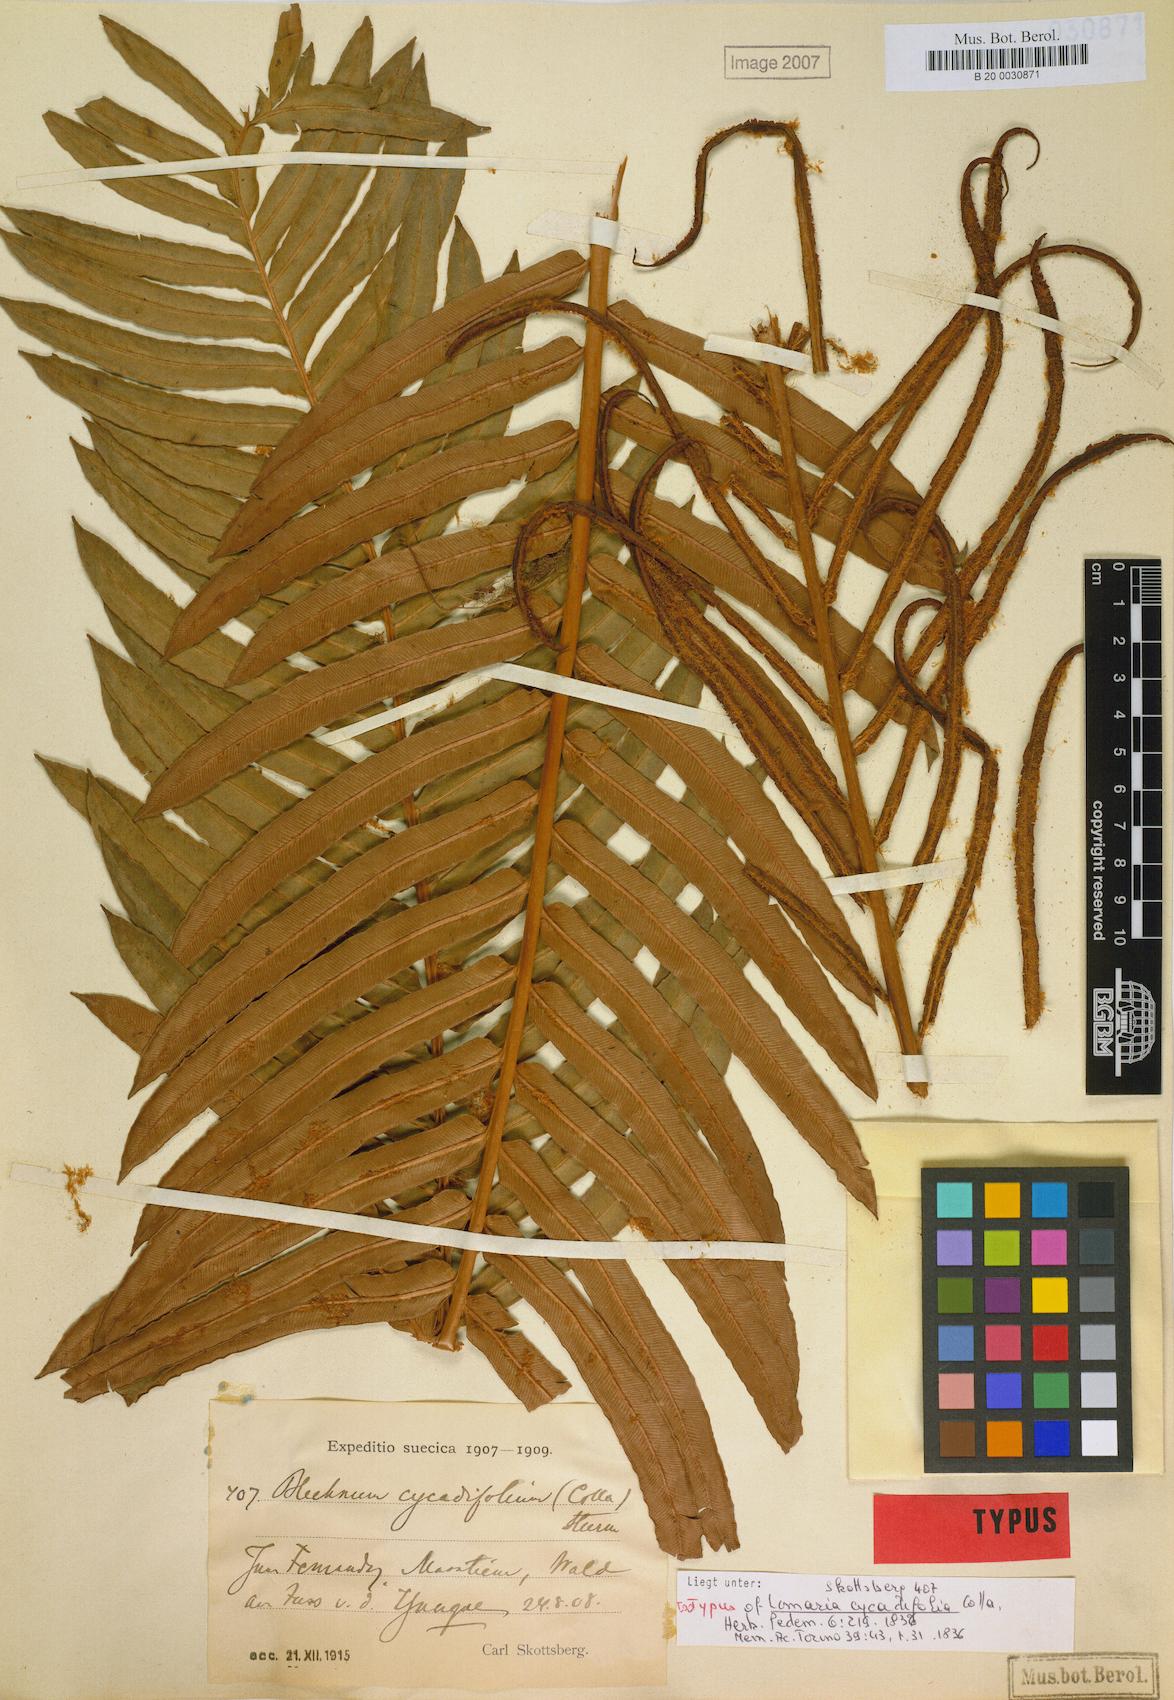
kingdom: Plantae
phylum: Tracheophyta
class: Polypodiopsida
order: Polypodiales
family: Blechnaceae
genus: Lomariocycas
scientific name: Lomariocycas cycadifolia
